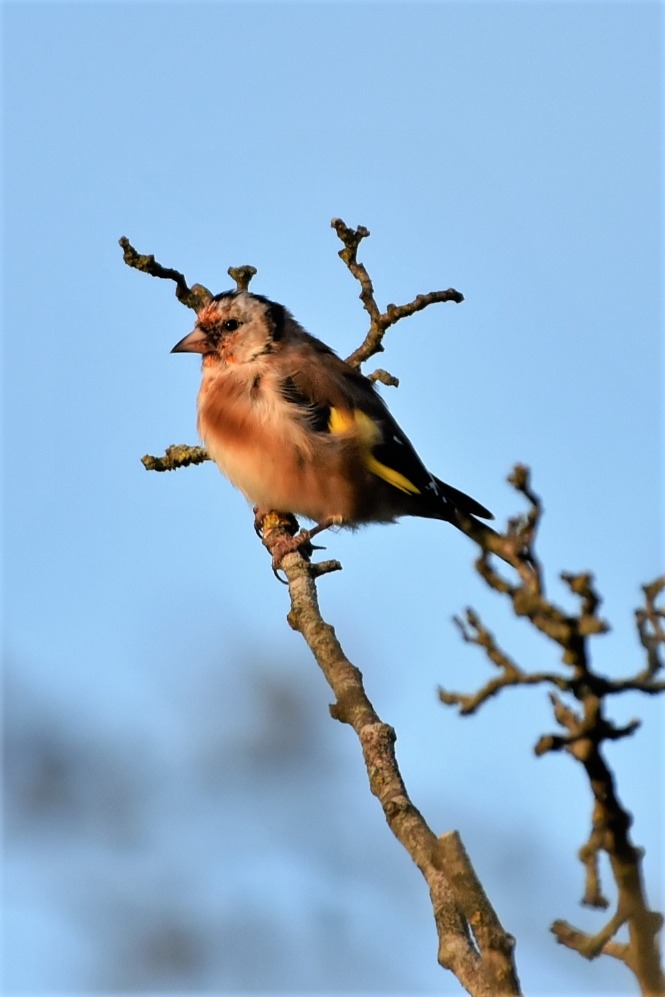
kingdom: Animalia
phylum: Chordata
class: Aves
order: Passeriformes
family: Fringillidae
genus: Carduelis
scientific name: Carduelis carduelis
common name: Stillits
